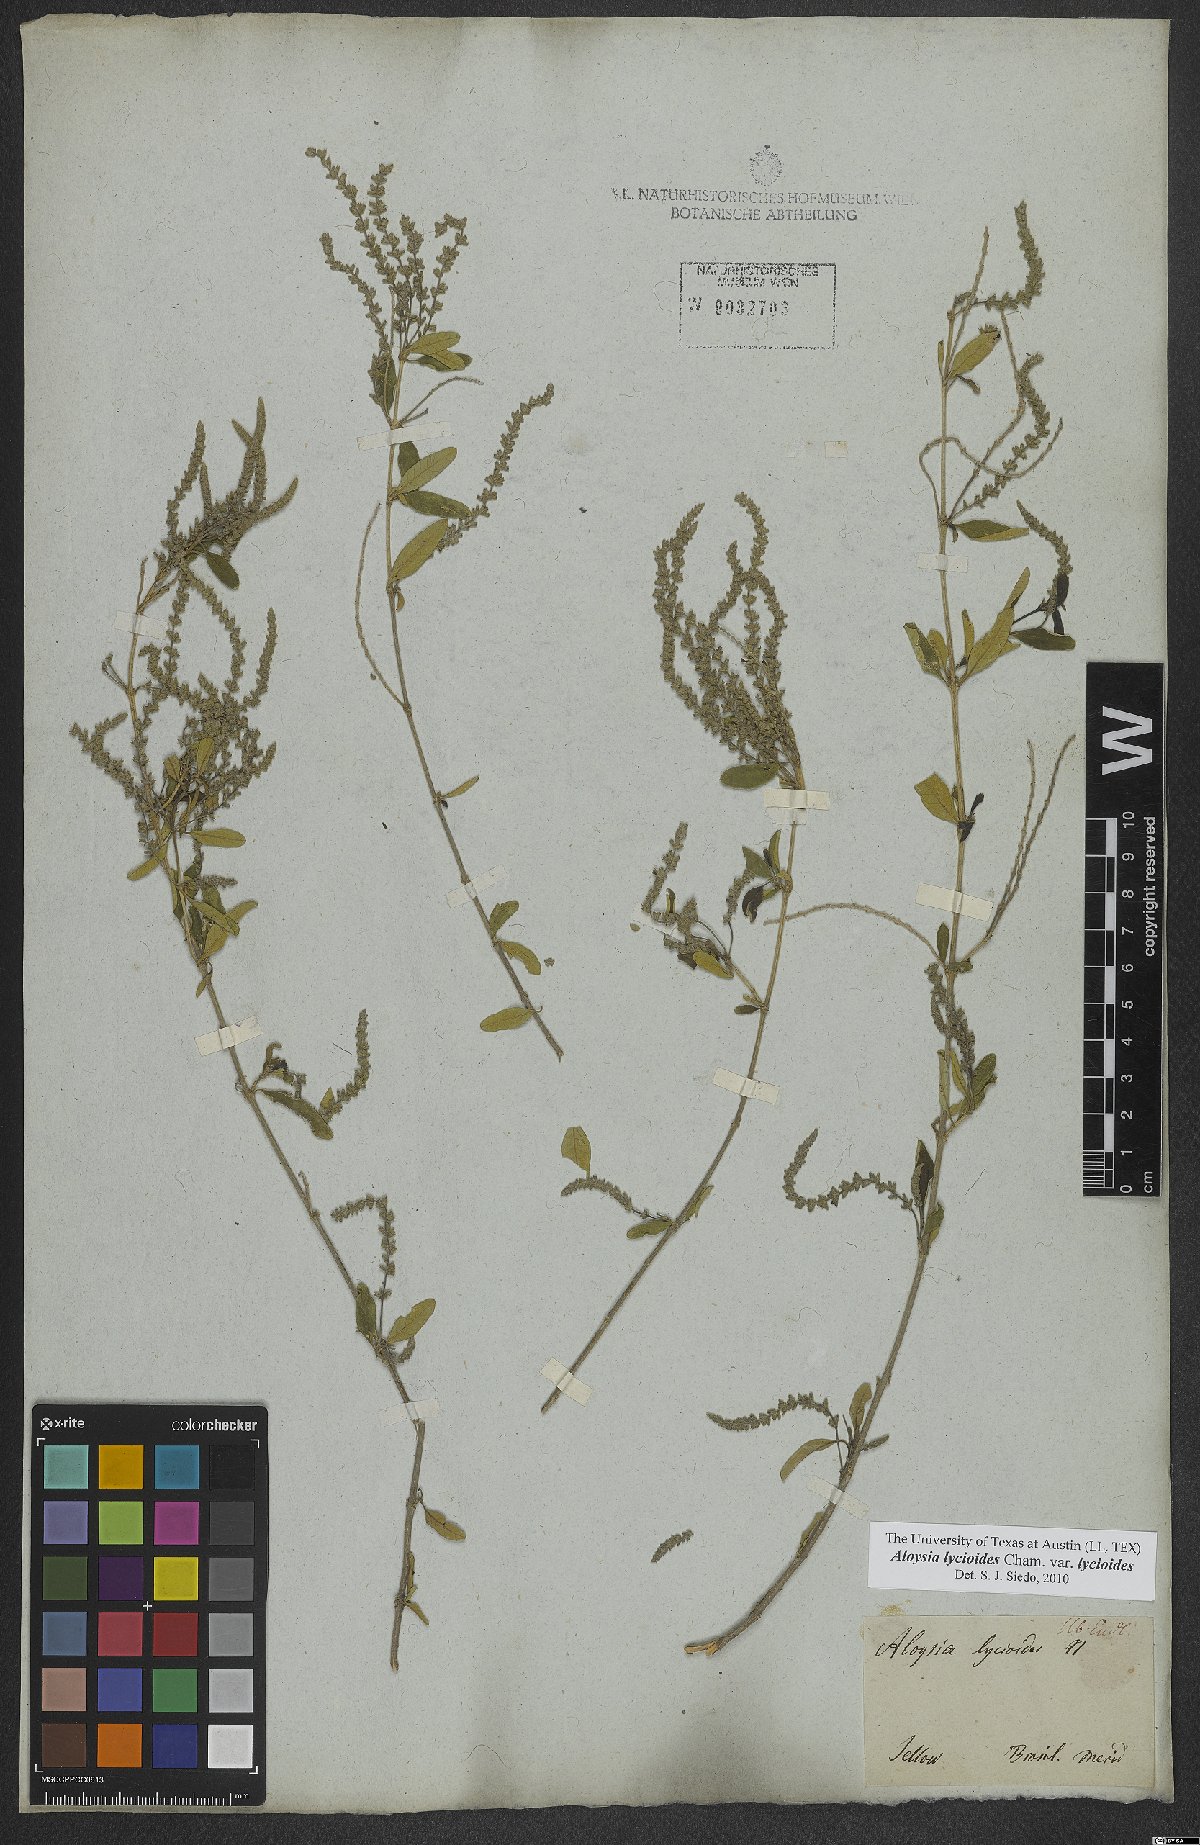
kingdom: Plantae
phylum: Tracheophyta
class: Magnoliopsida
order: Lamiales
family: Verbenaceae
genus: Aloysia
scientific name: Aloysia gratissima
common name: Common bee-brush
